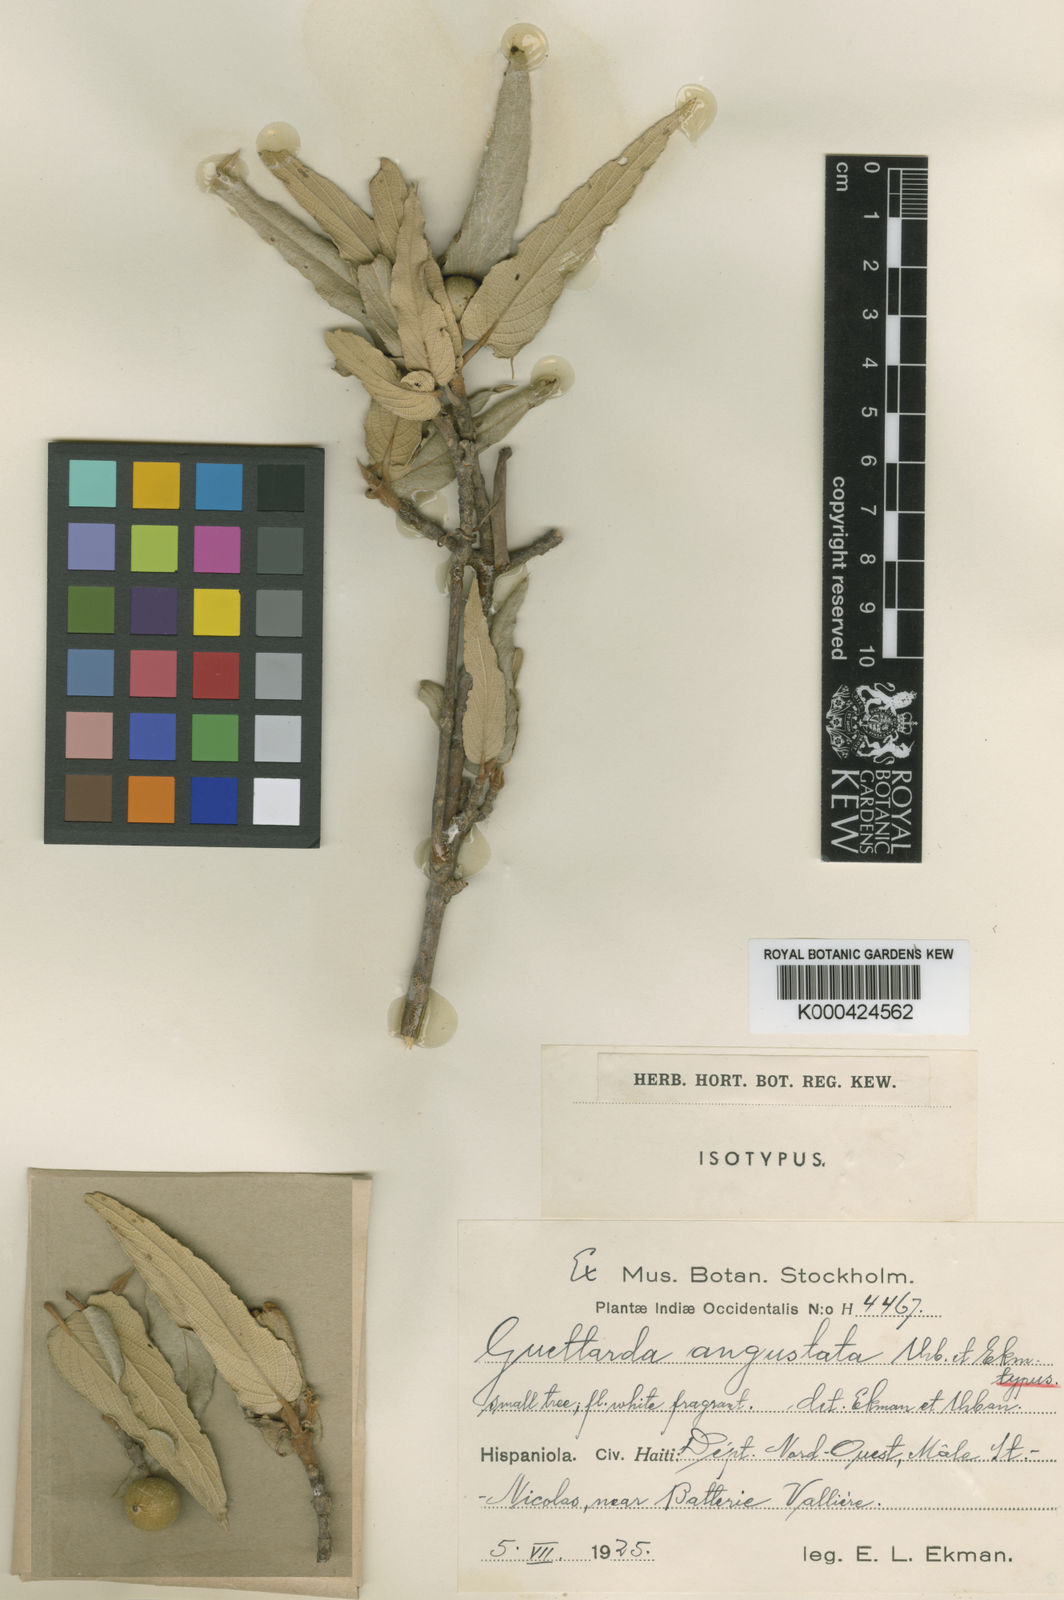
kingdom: Plantae
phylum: Tracheophyta
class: Magnoliopsida
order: Gentianales
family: Rubiaceae
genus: Guettarda
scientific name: Guettarda angustata
